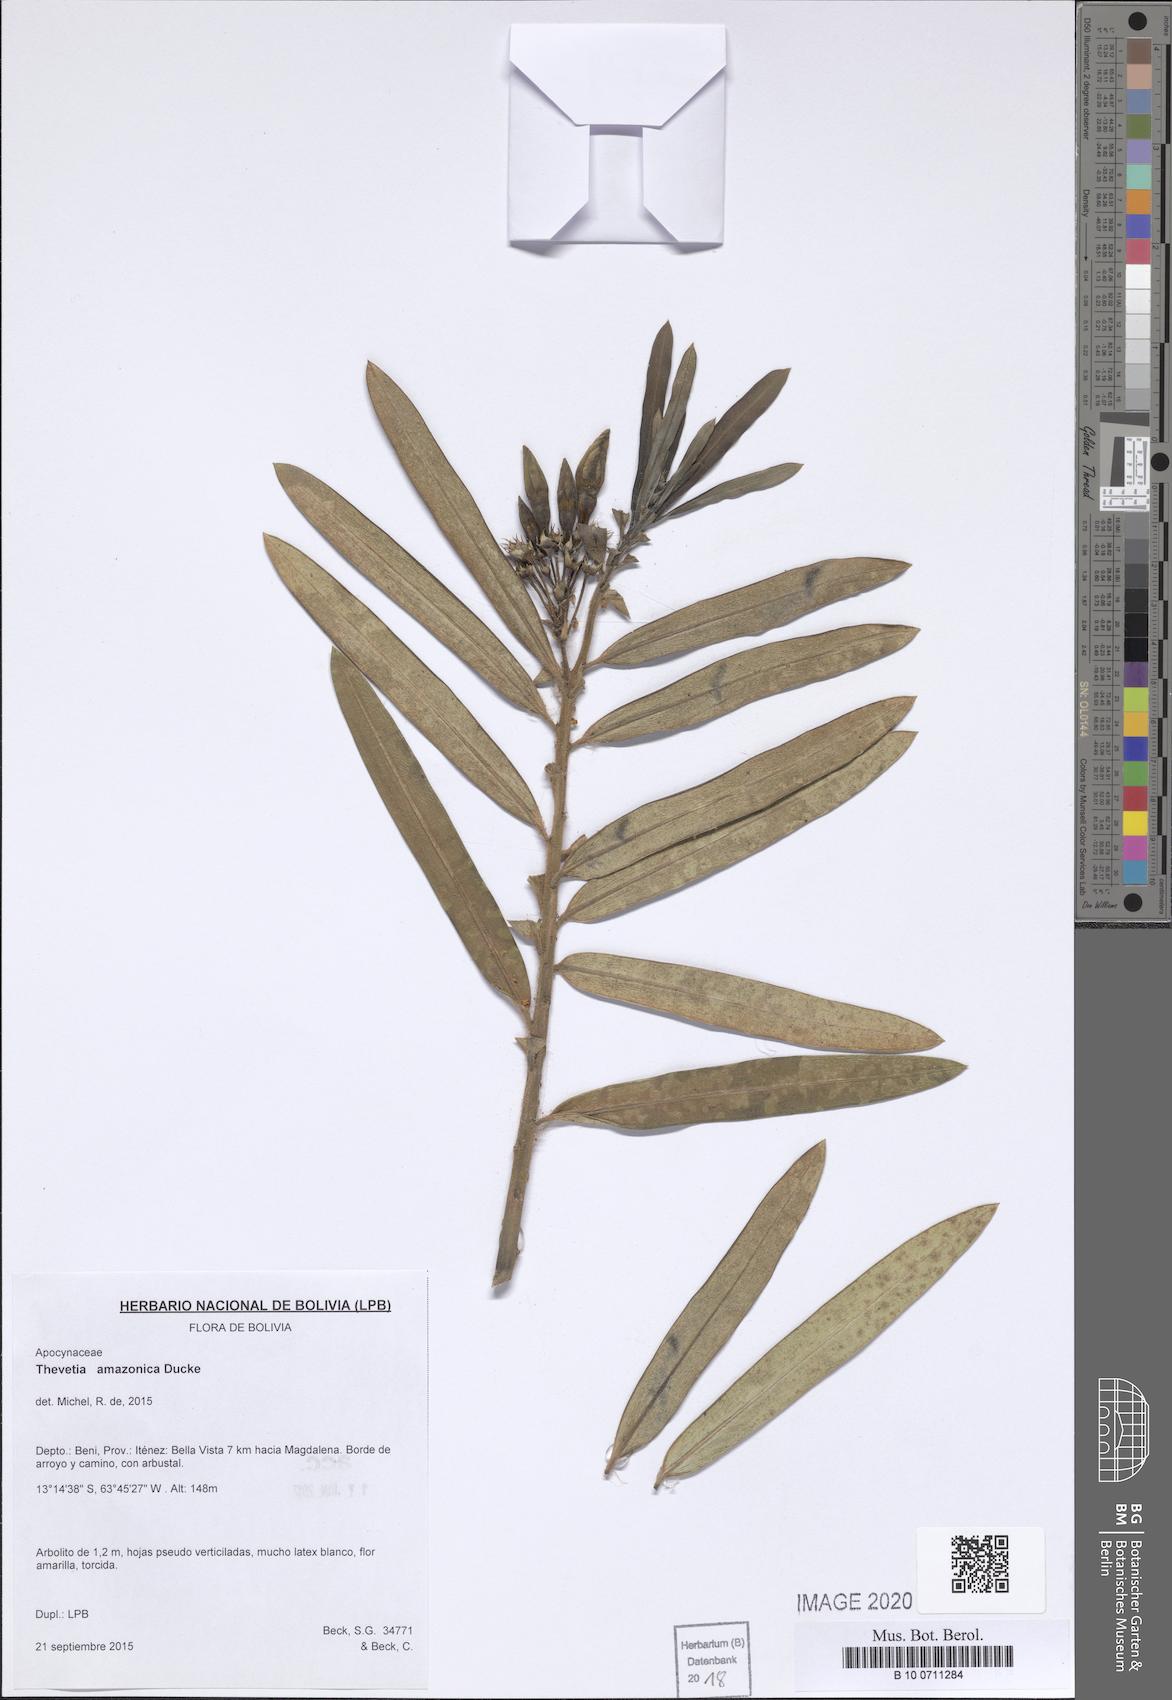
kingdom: Plantae
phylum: Tracheophyta
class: Magnoliopsida
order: Gentianales
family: Apocynaceae
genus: Thevetia
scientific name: Thevetia amazonica
